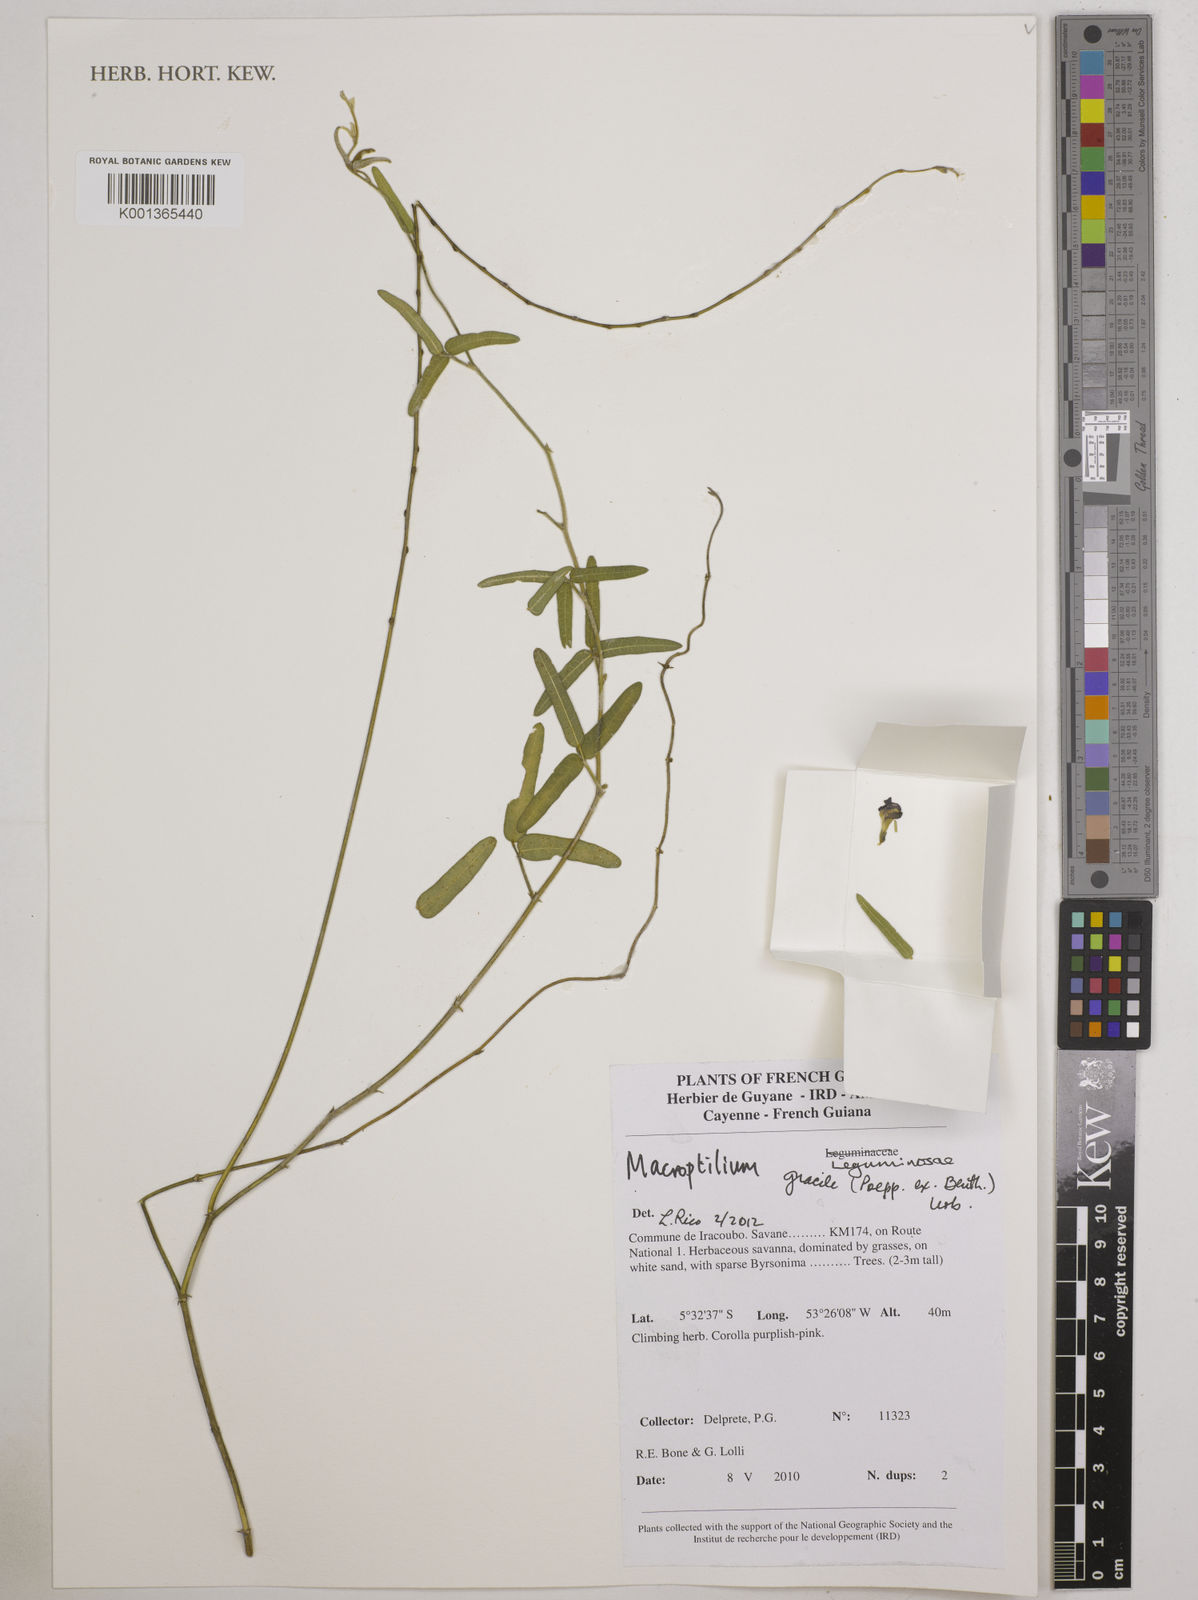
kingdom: Plantae
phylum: Tracheophyta
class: Magnoliopsida
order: Fabales
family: Fabaceae
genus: Macroptilium
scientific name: Macroptilium gracile
